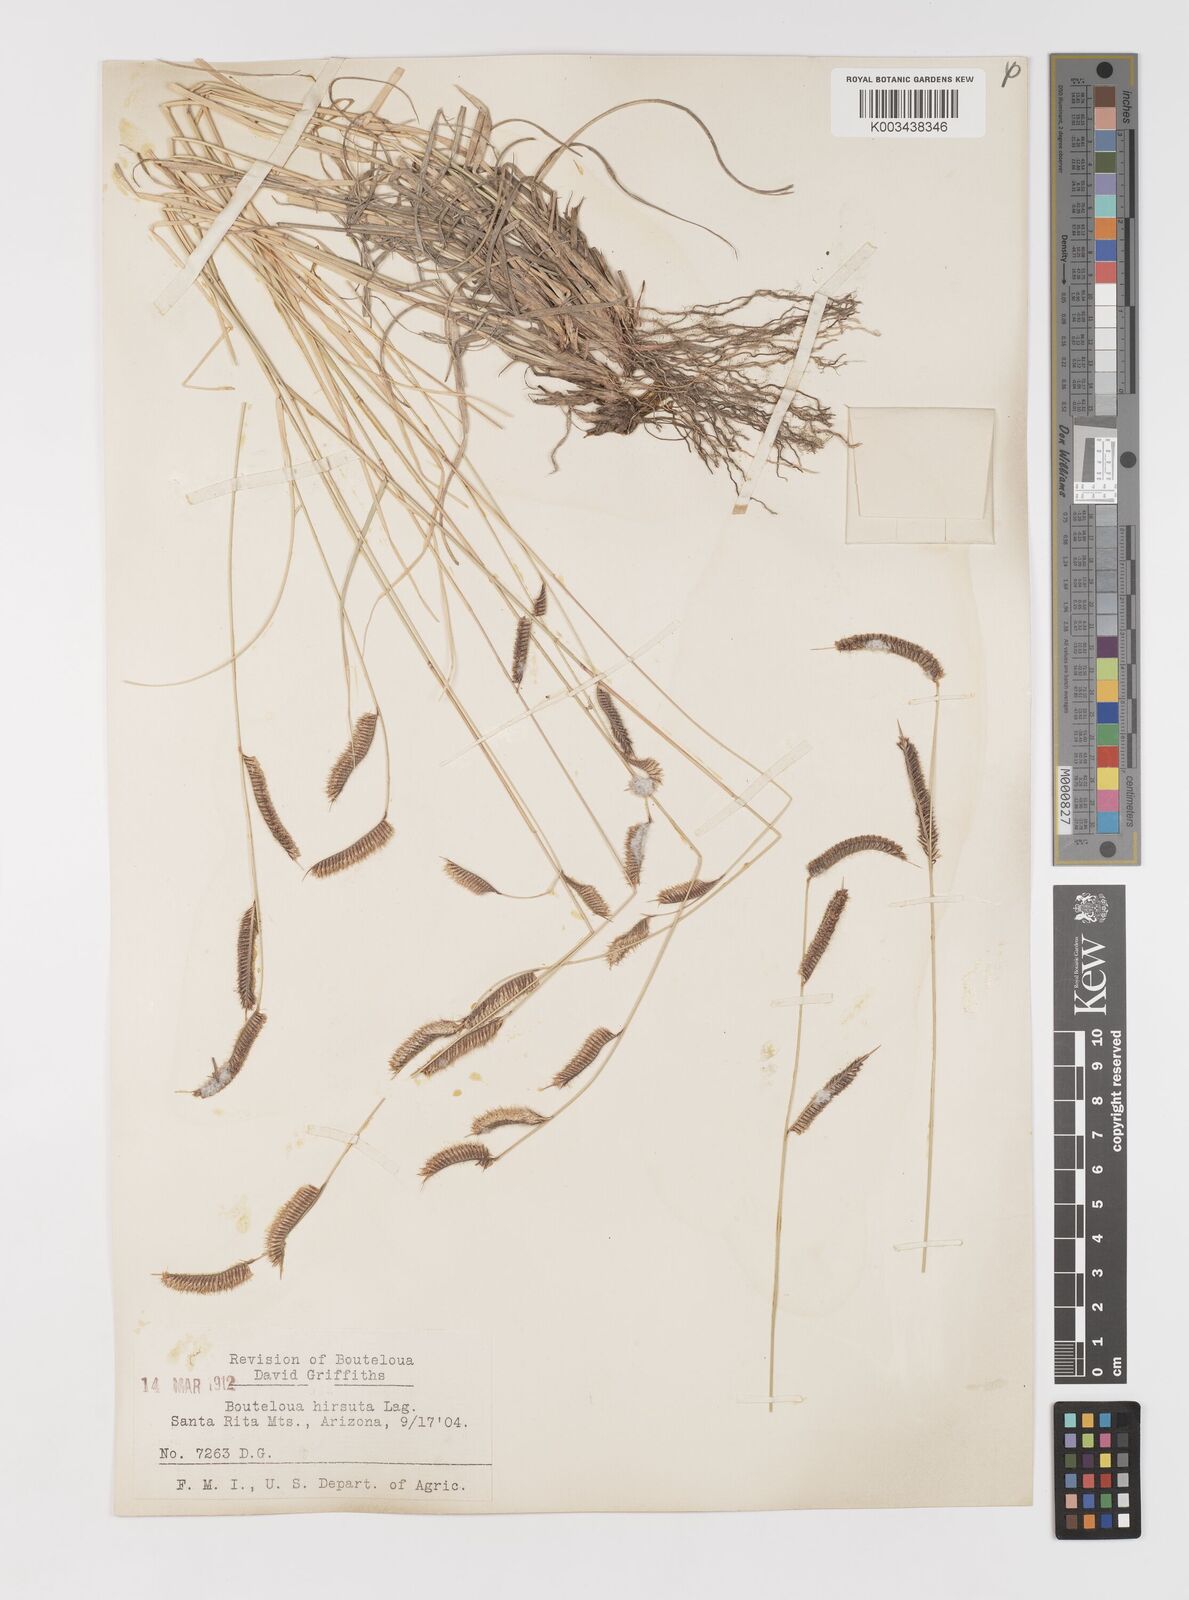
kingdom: Plantae
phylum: Tracheophyta
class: Liliopsida
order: Poales
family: Poaceae
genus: Bouteloua
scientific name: Bouteloua hirsuta
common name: Hairy grama
